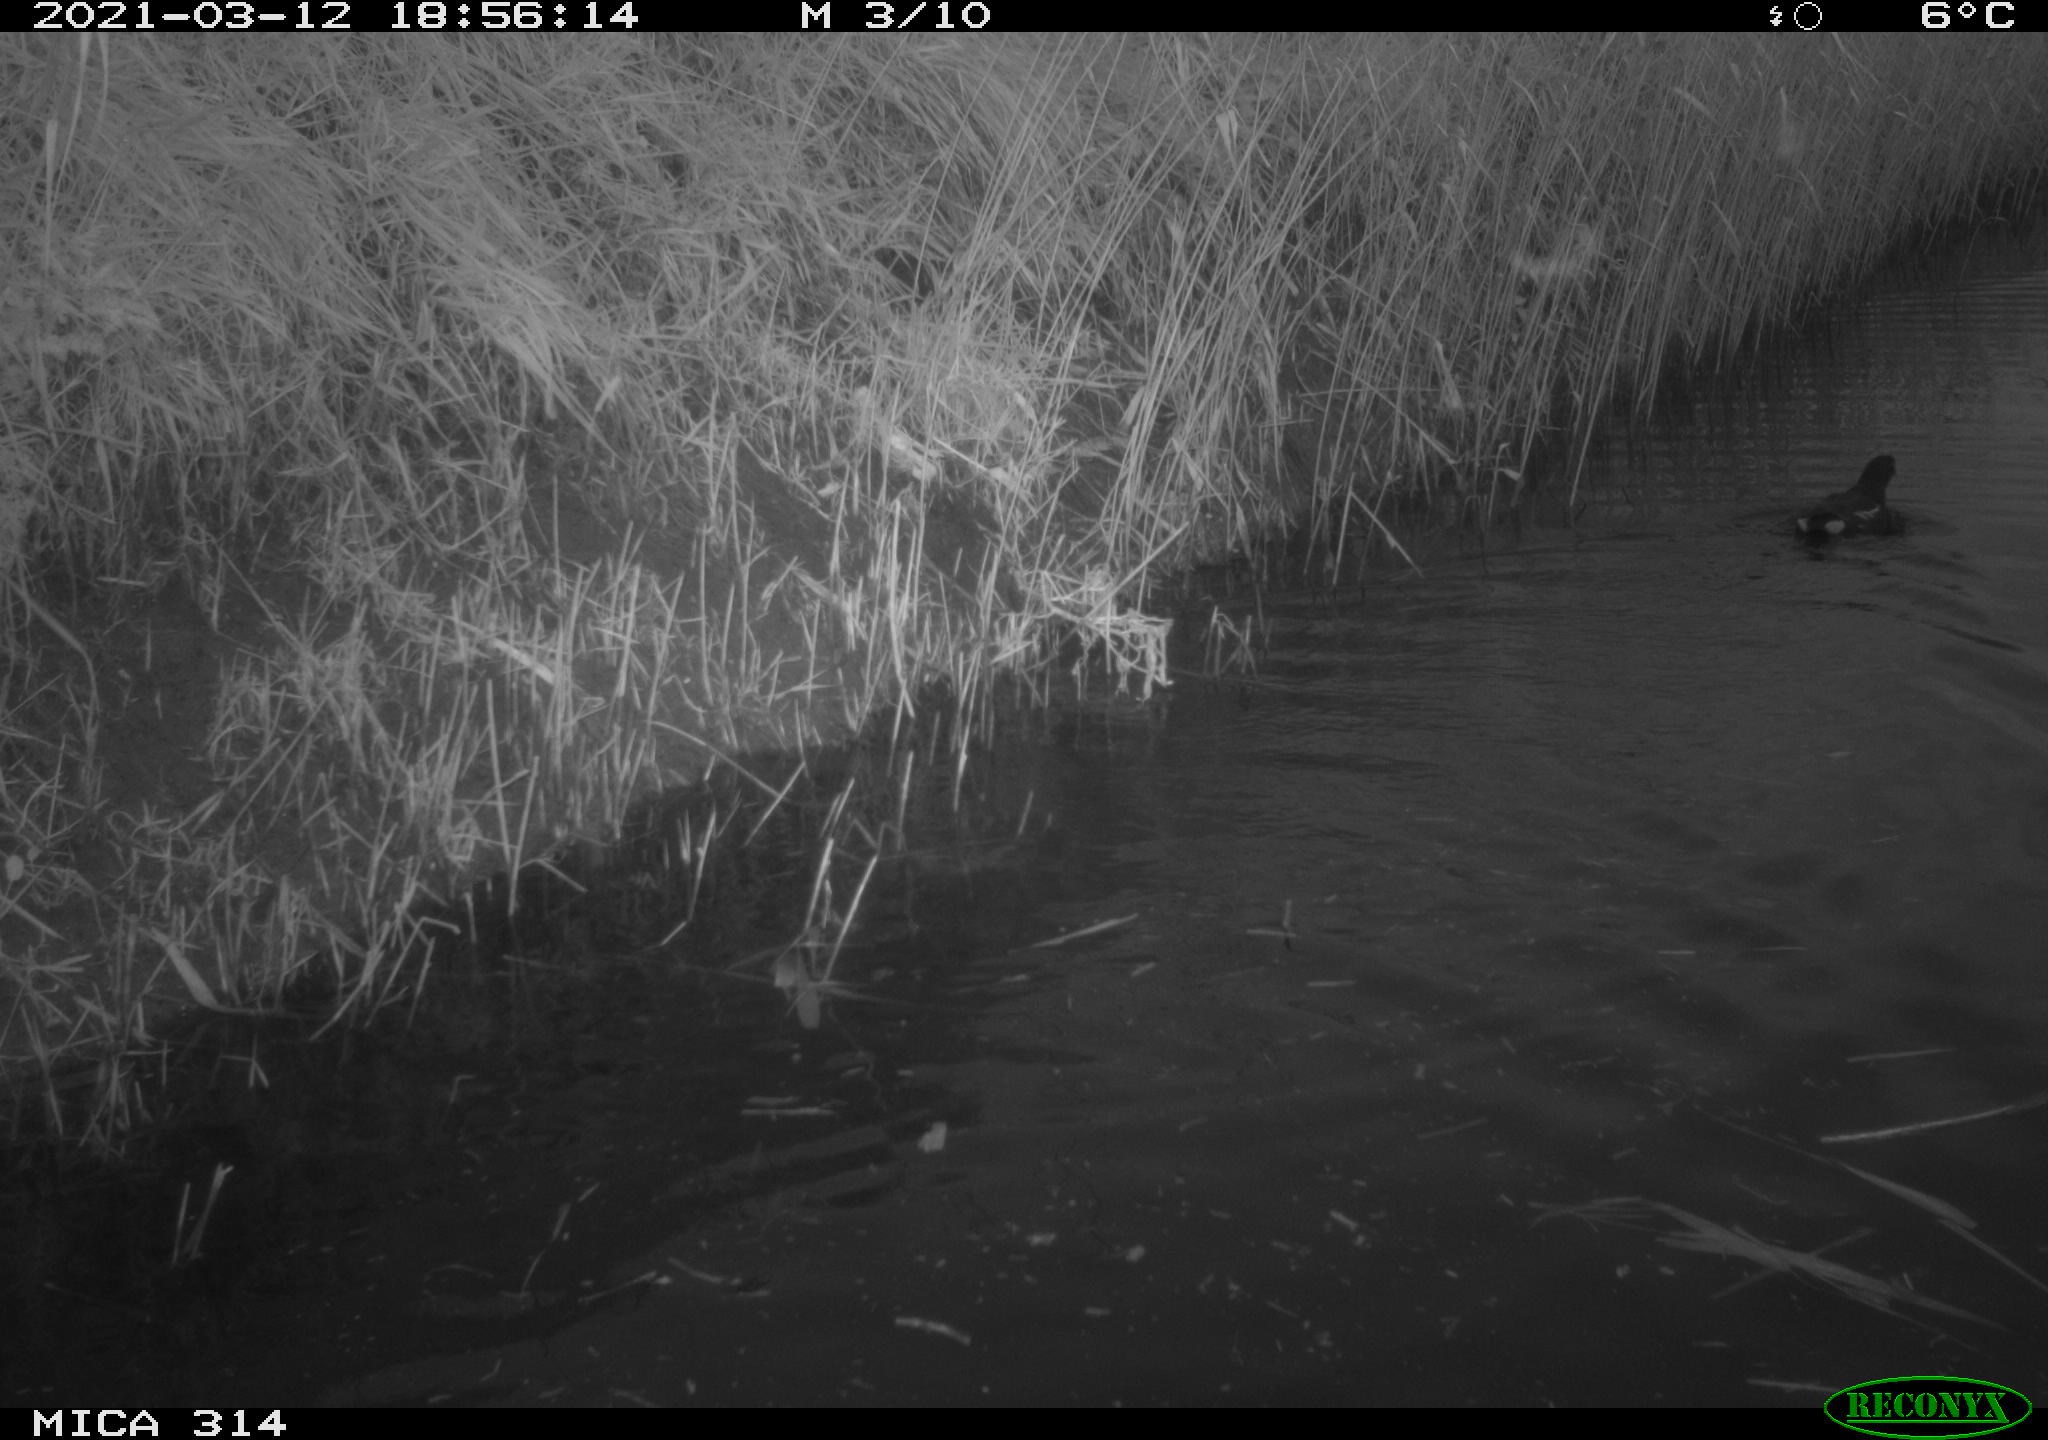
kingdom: Animalia
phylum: Chordata
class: Aves
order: Gruiformes
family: Rallidae
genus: Gallinula
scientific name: Gallinula chloropus
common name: Common moorhen
